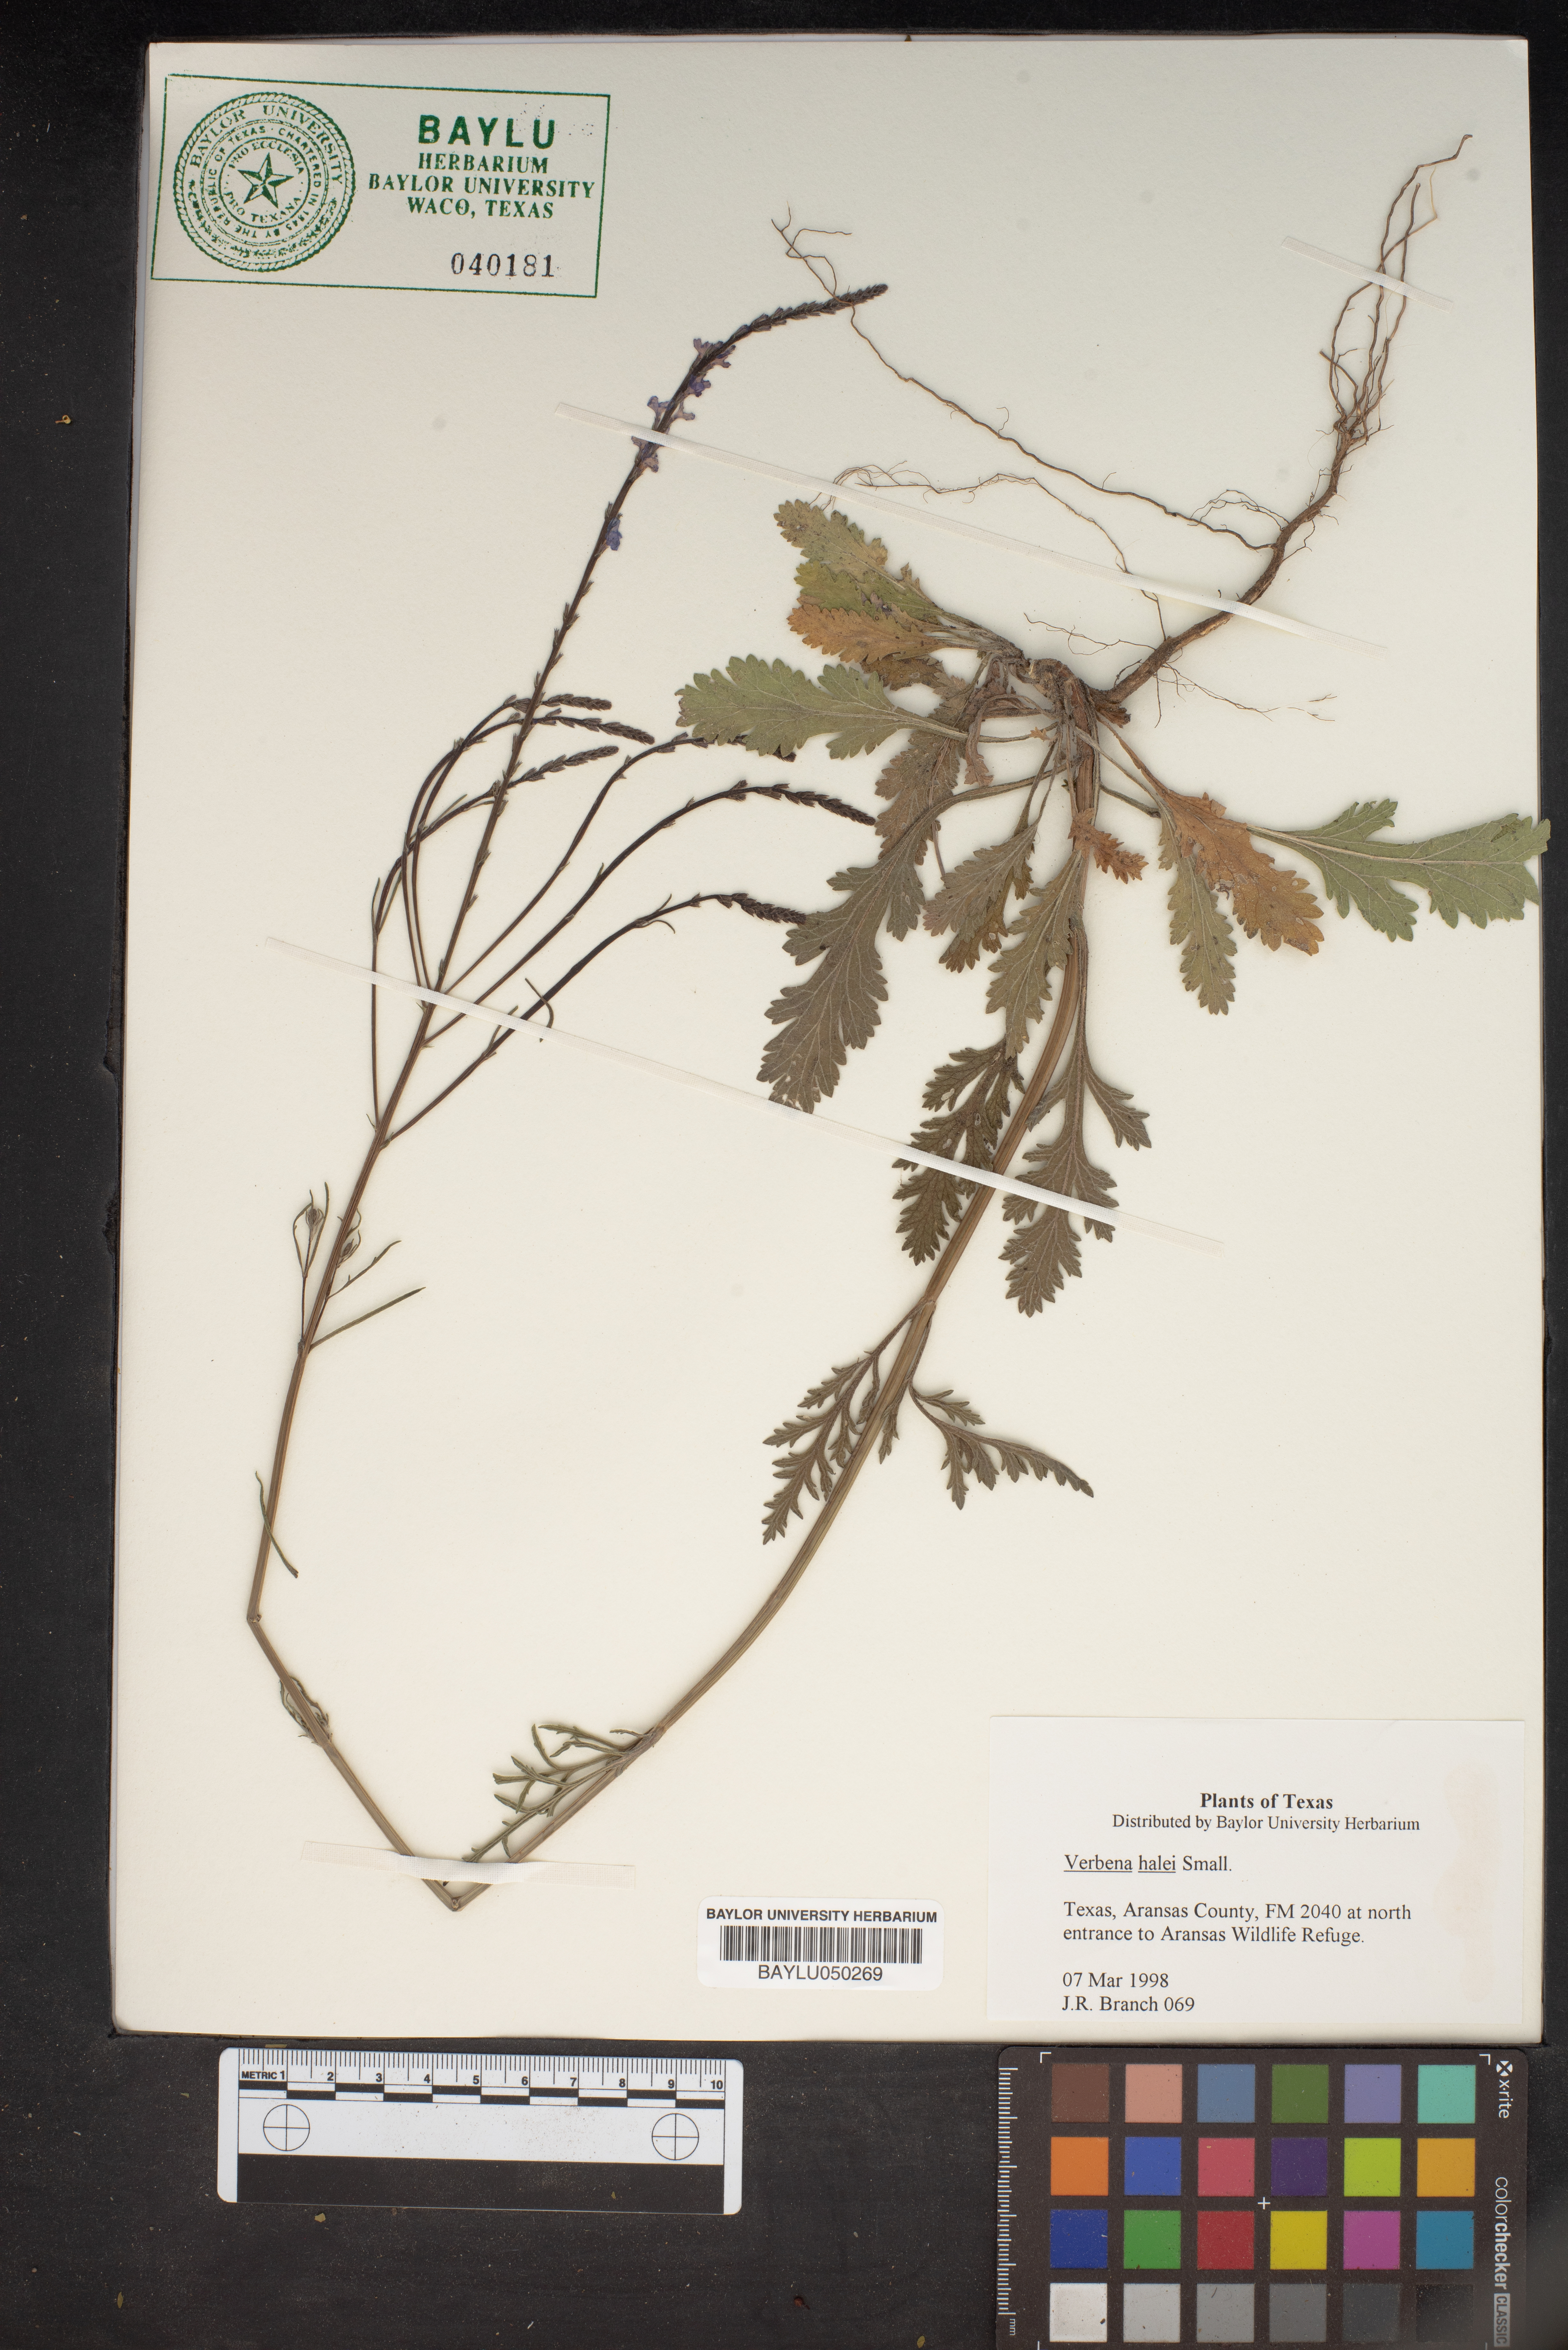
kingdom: Plantae
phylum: Tracheophyta
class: Magnoliopsida
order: Lamiales
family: Verbenaceae
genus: Verbena
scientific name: Verbena halei
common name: Texas vervain
